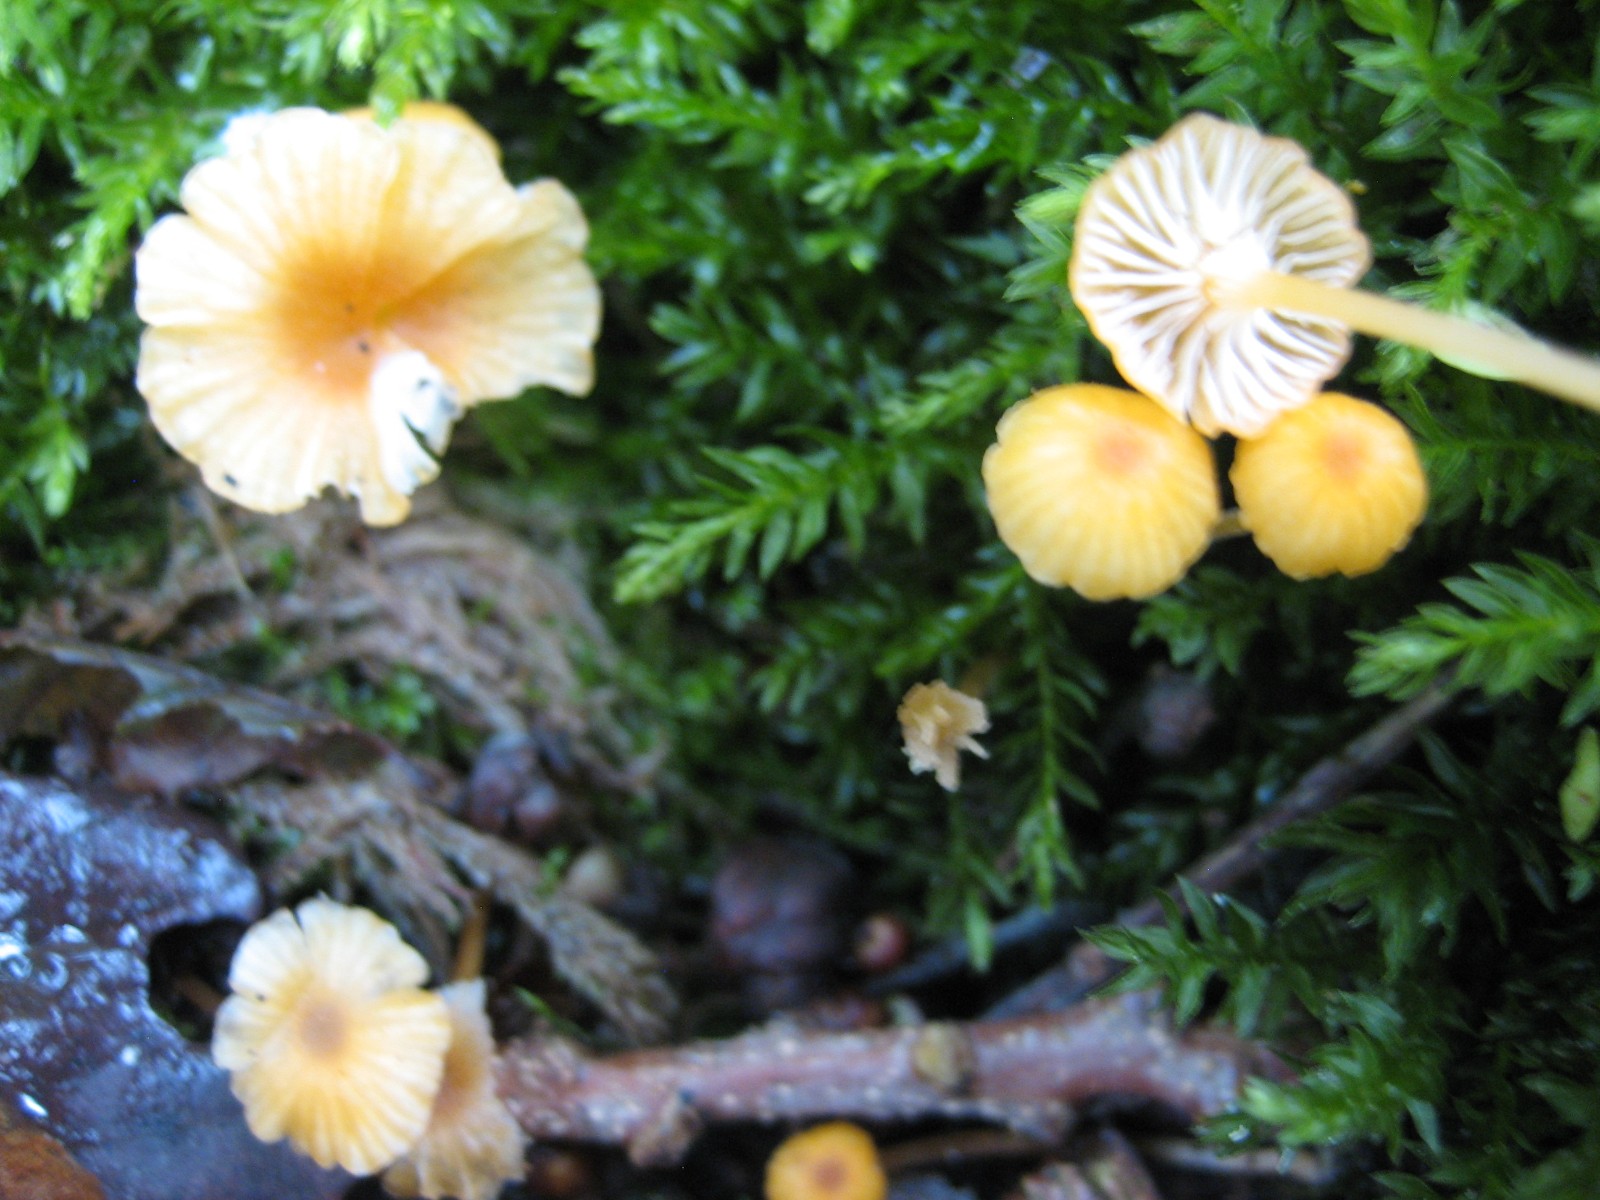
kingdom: Fungi
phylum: Basidiomycota
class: Agaricomycetes
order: Hymenochaetales
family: Rickenellaceae
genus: Rickenella
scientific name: Rickenella fibula
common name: orange mosnavlehat
